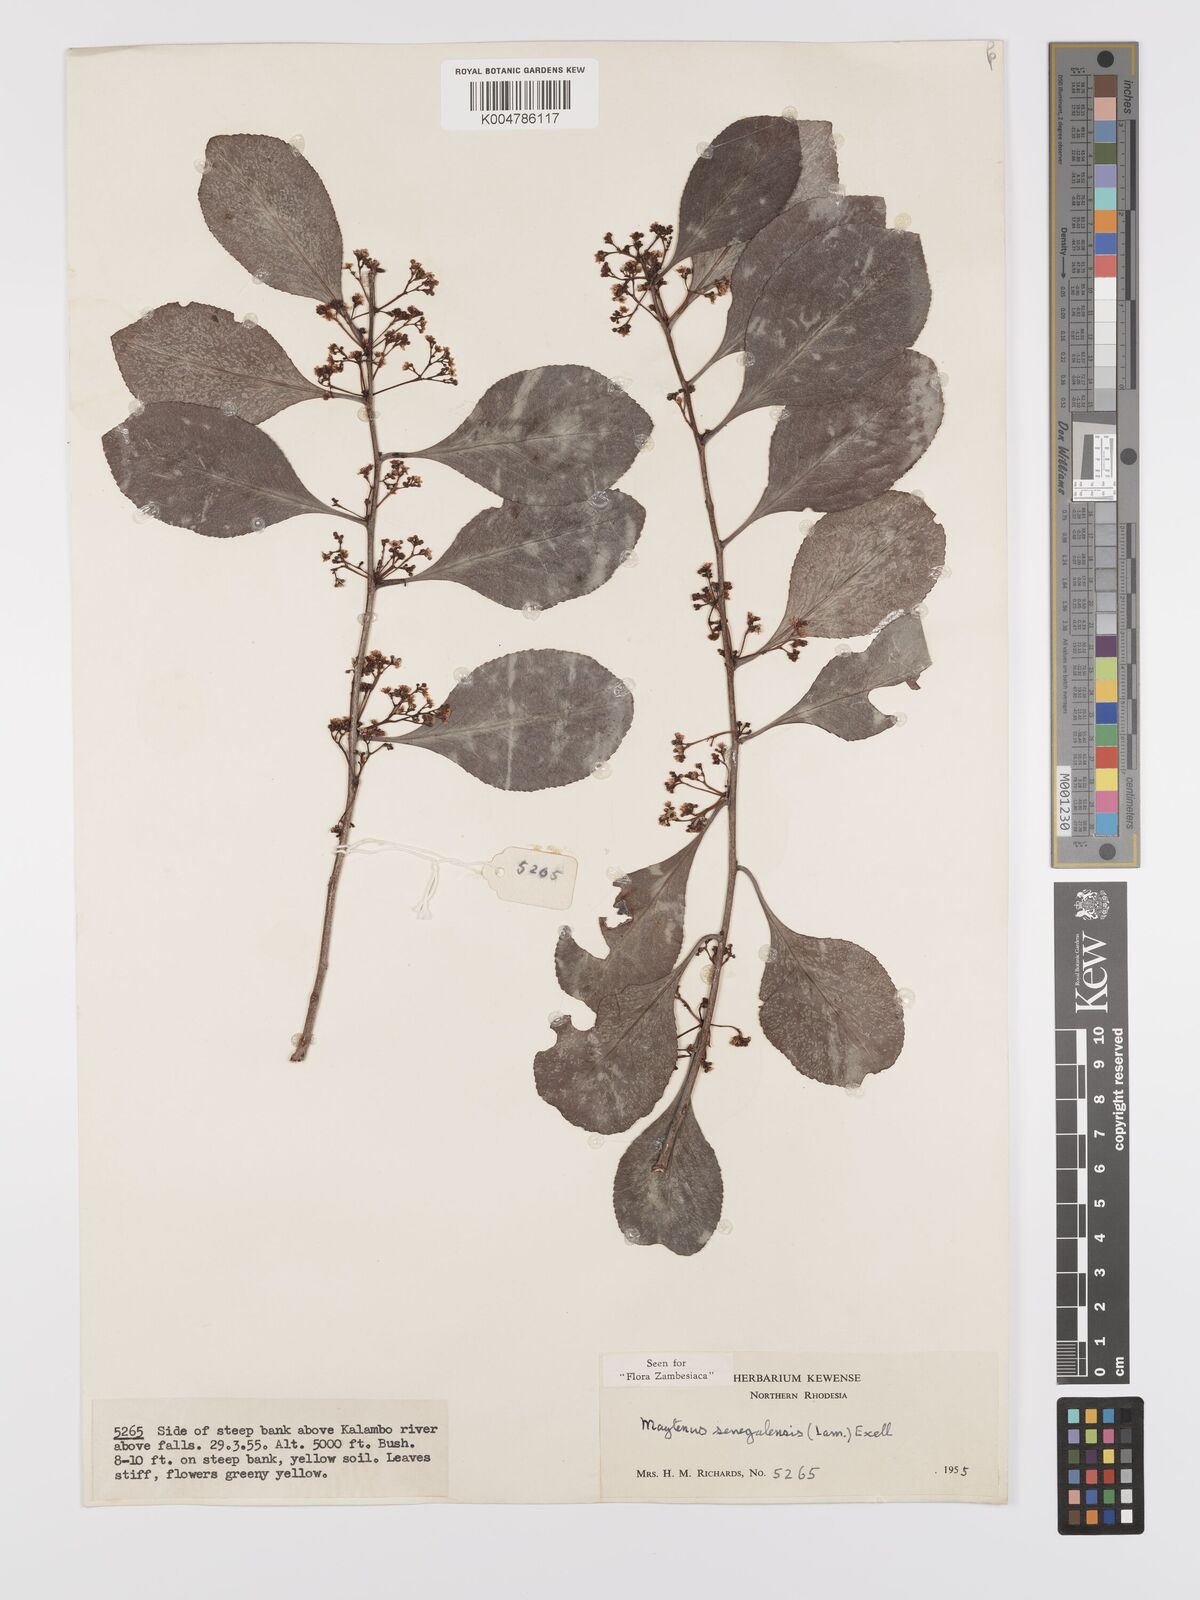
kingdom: Plantae
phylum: Tracheophyta
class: Magnoliopsida
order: Celastrales
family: Celastraceae
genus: Gymnosporia
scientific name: Gymnosporia senegalensis
